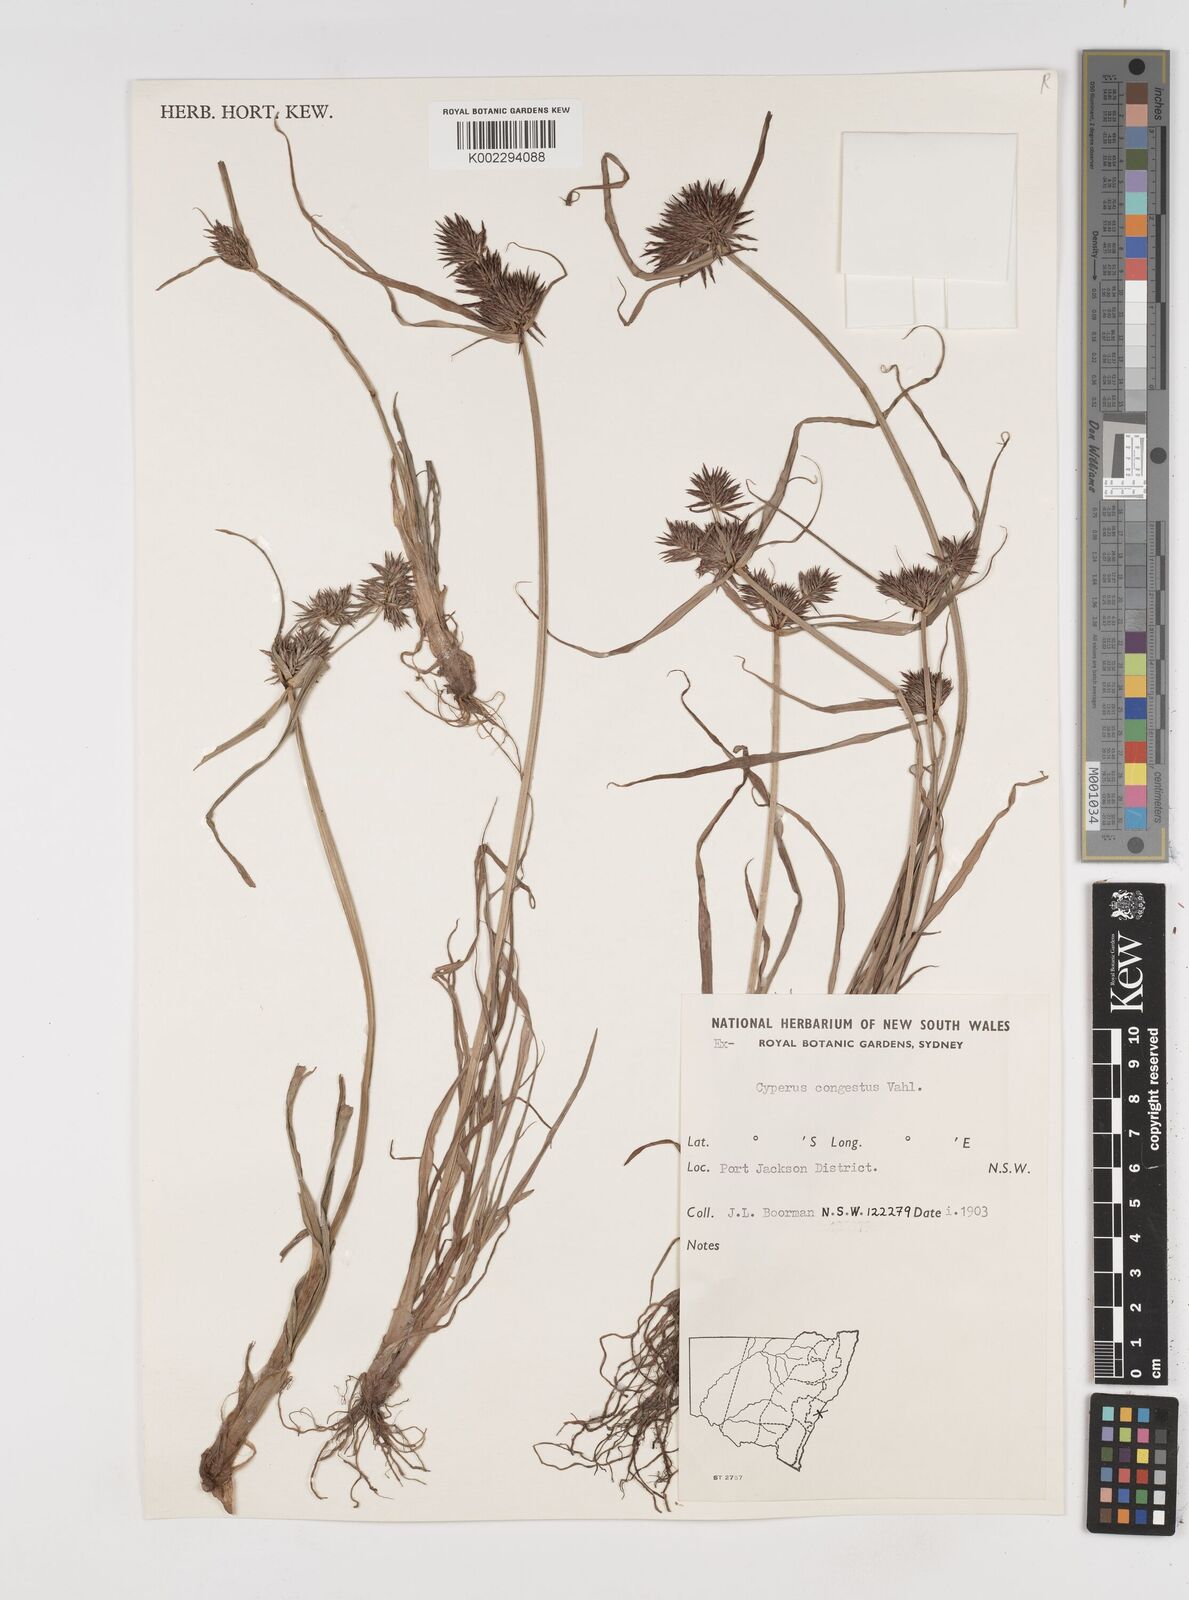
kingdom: Plantae
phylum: Tracheophyta
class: Liliopsida
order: Poales
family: Cyperaceae
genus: Cyperus
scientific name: Cyperus congestus
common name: Dense flat sedge
